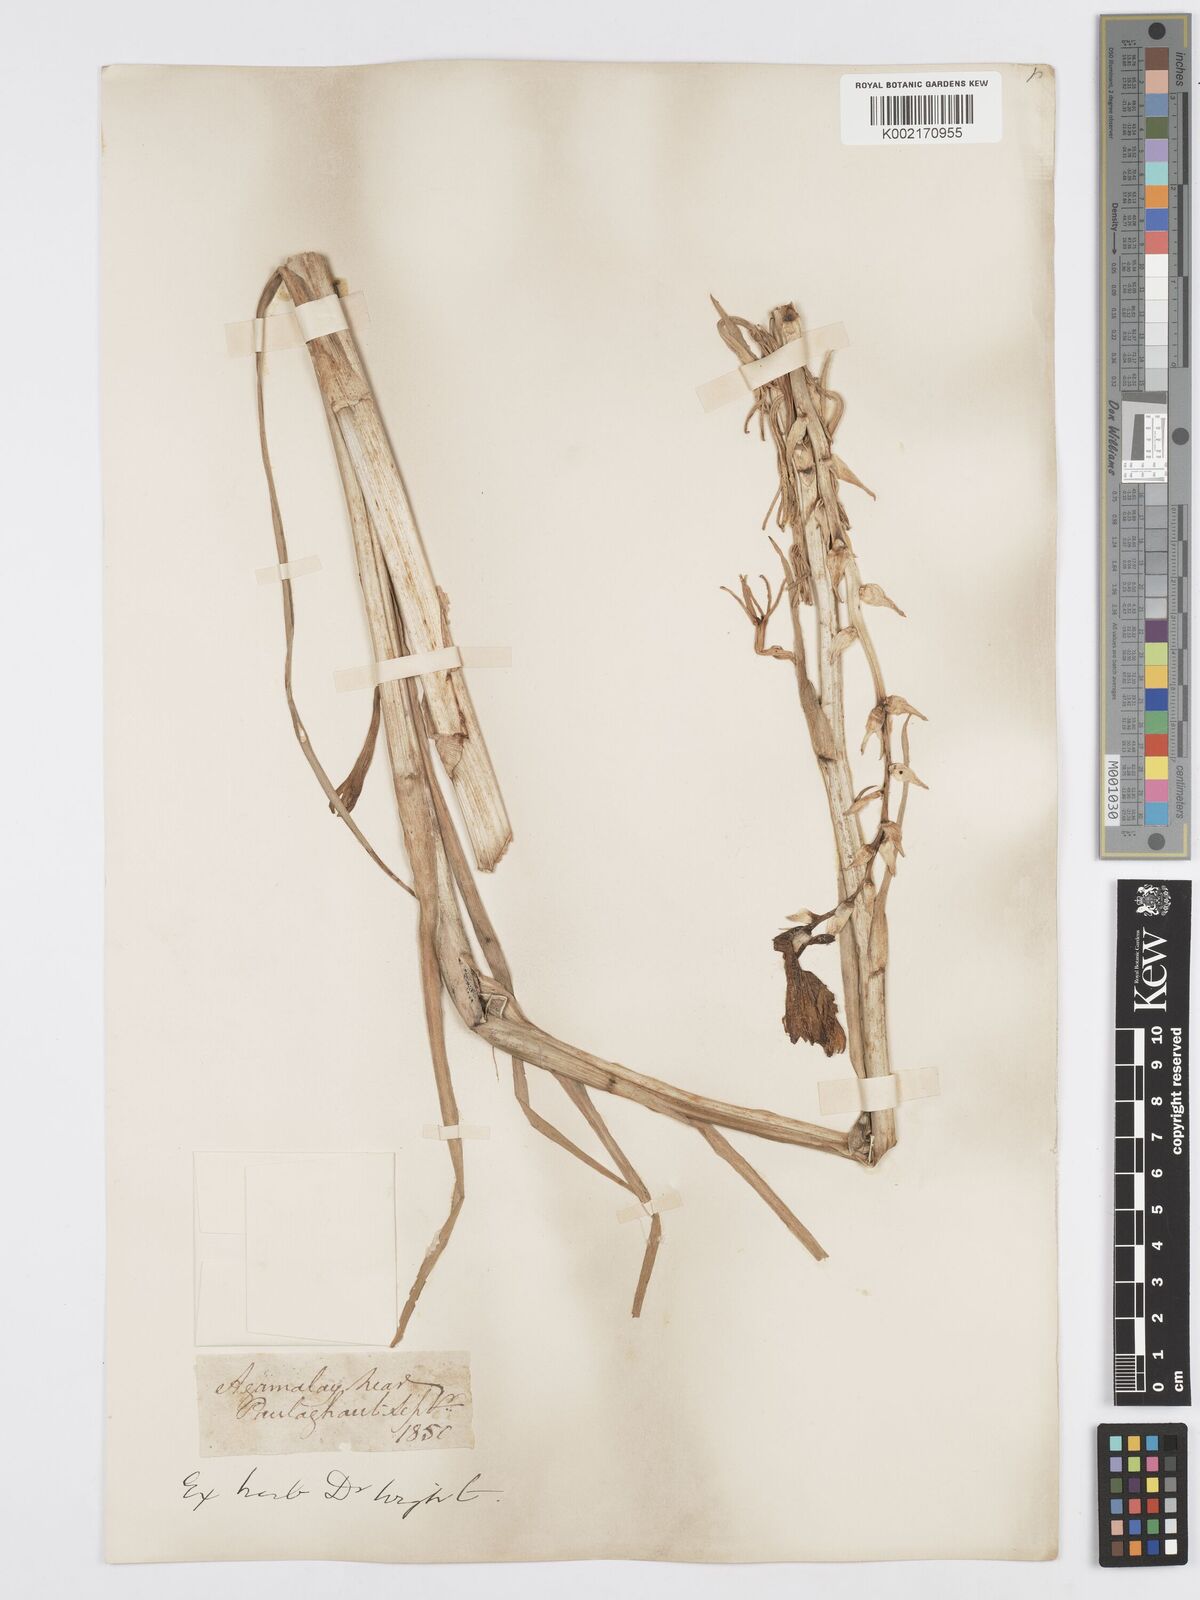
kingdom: Plantae
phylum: Tracheophyta
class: Liliopsida
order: Asparagales
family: Asparagaceae
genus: Agave
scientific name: Agave amica
